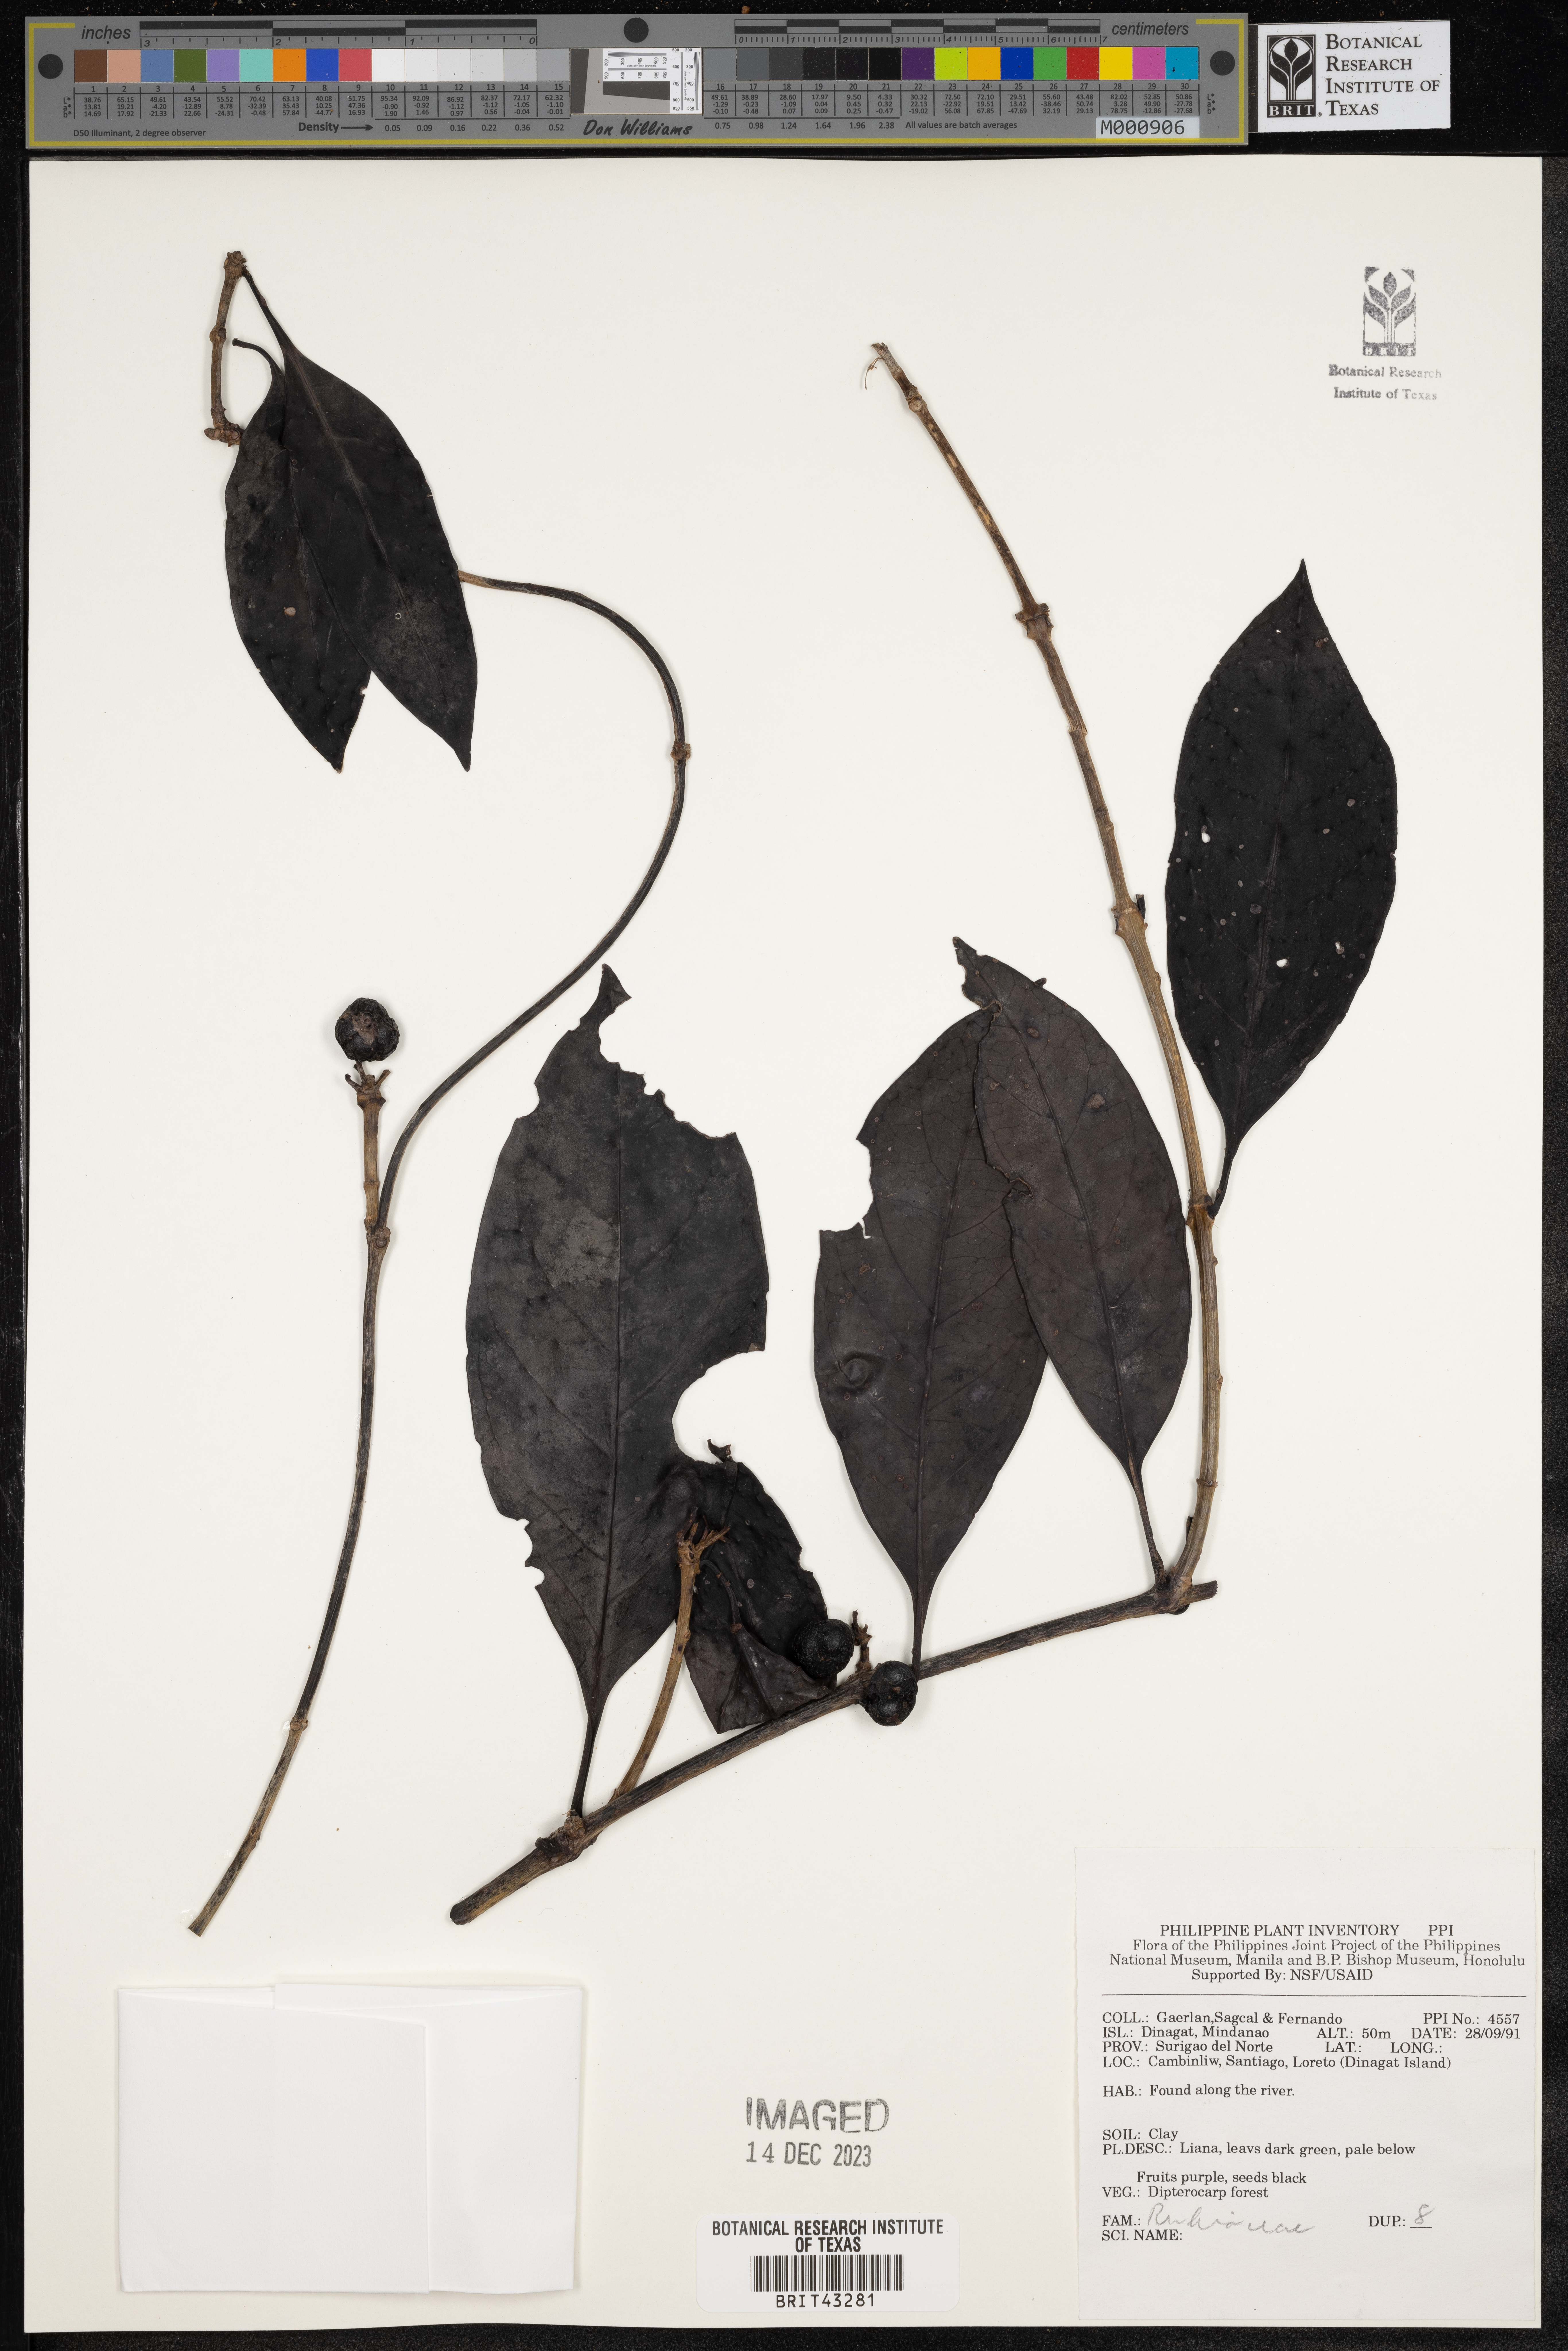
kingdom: Plantae
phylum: Tracheophyta
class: Magnoliopsida
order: Gentianales
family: Rubiaceae
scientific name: Rubiaceae
